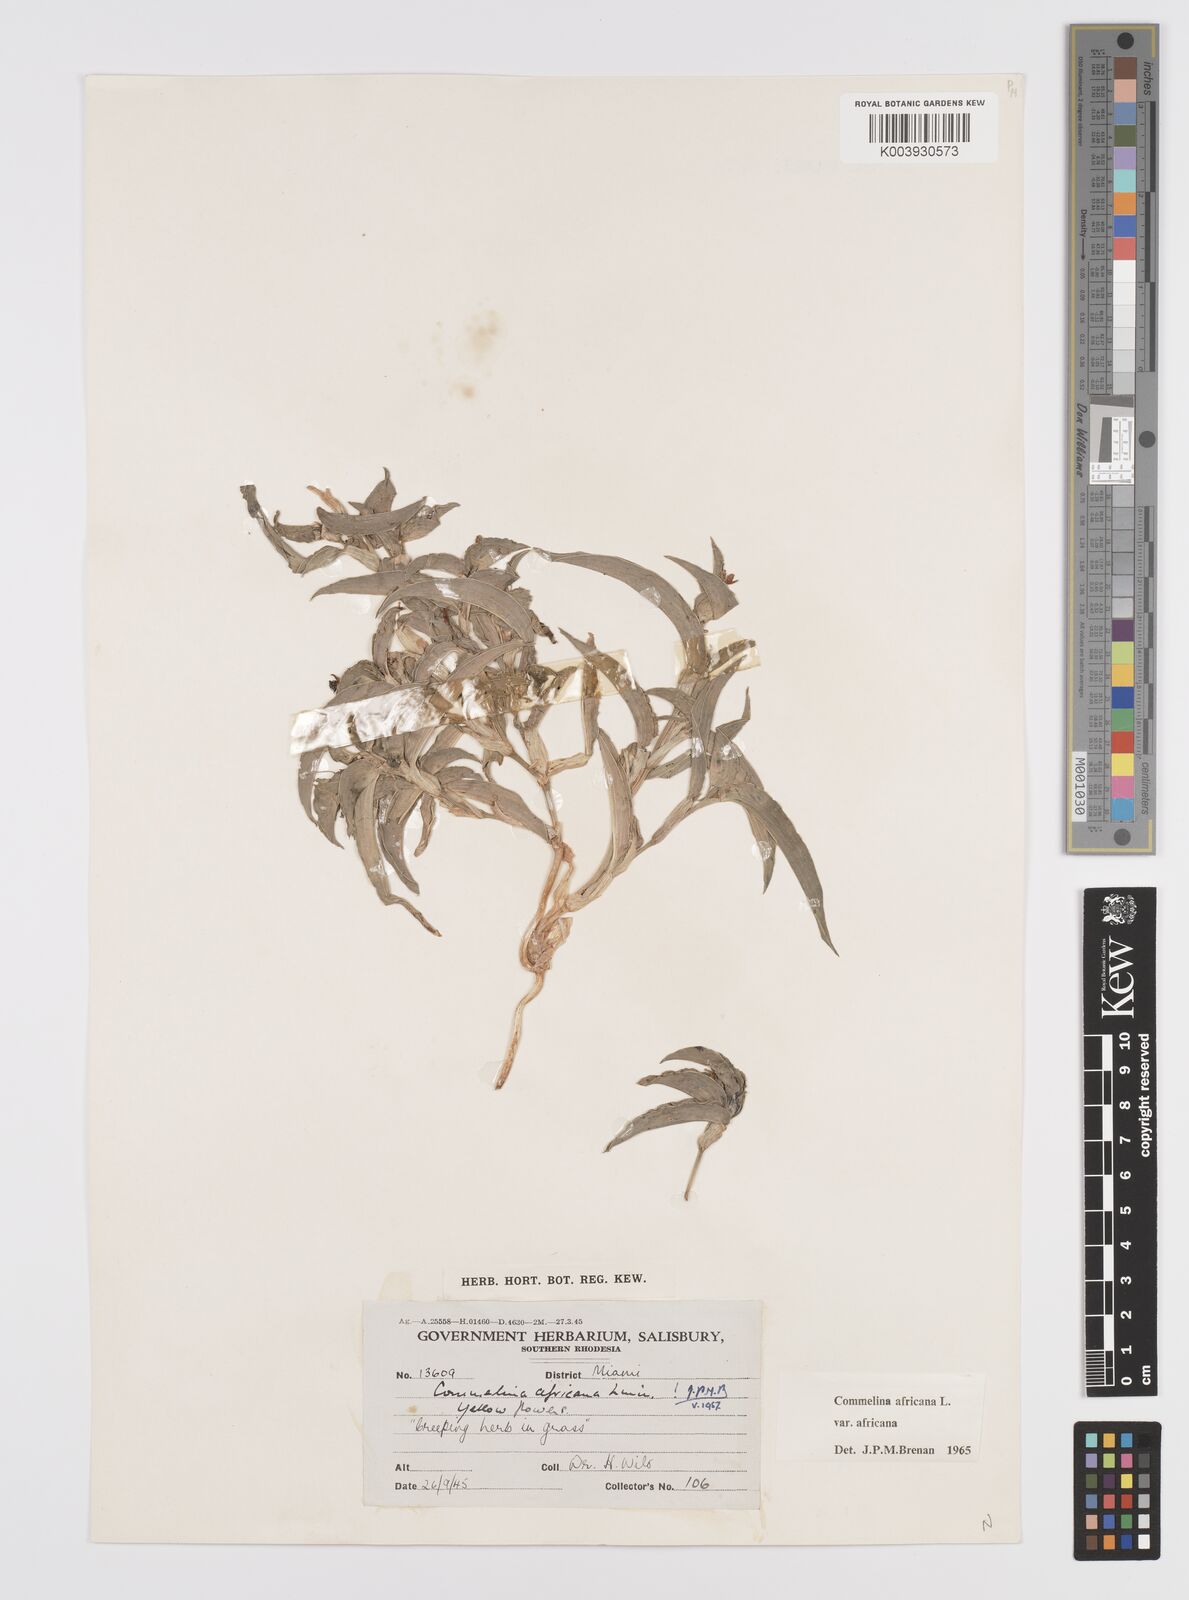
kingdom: Plantae
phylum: Tracheophyta
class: Liliopsida
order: Commelinales
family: Commelinaceae
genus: Commelina
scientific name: Commelina africana
